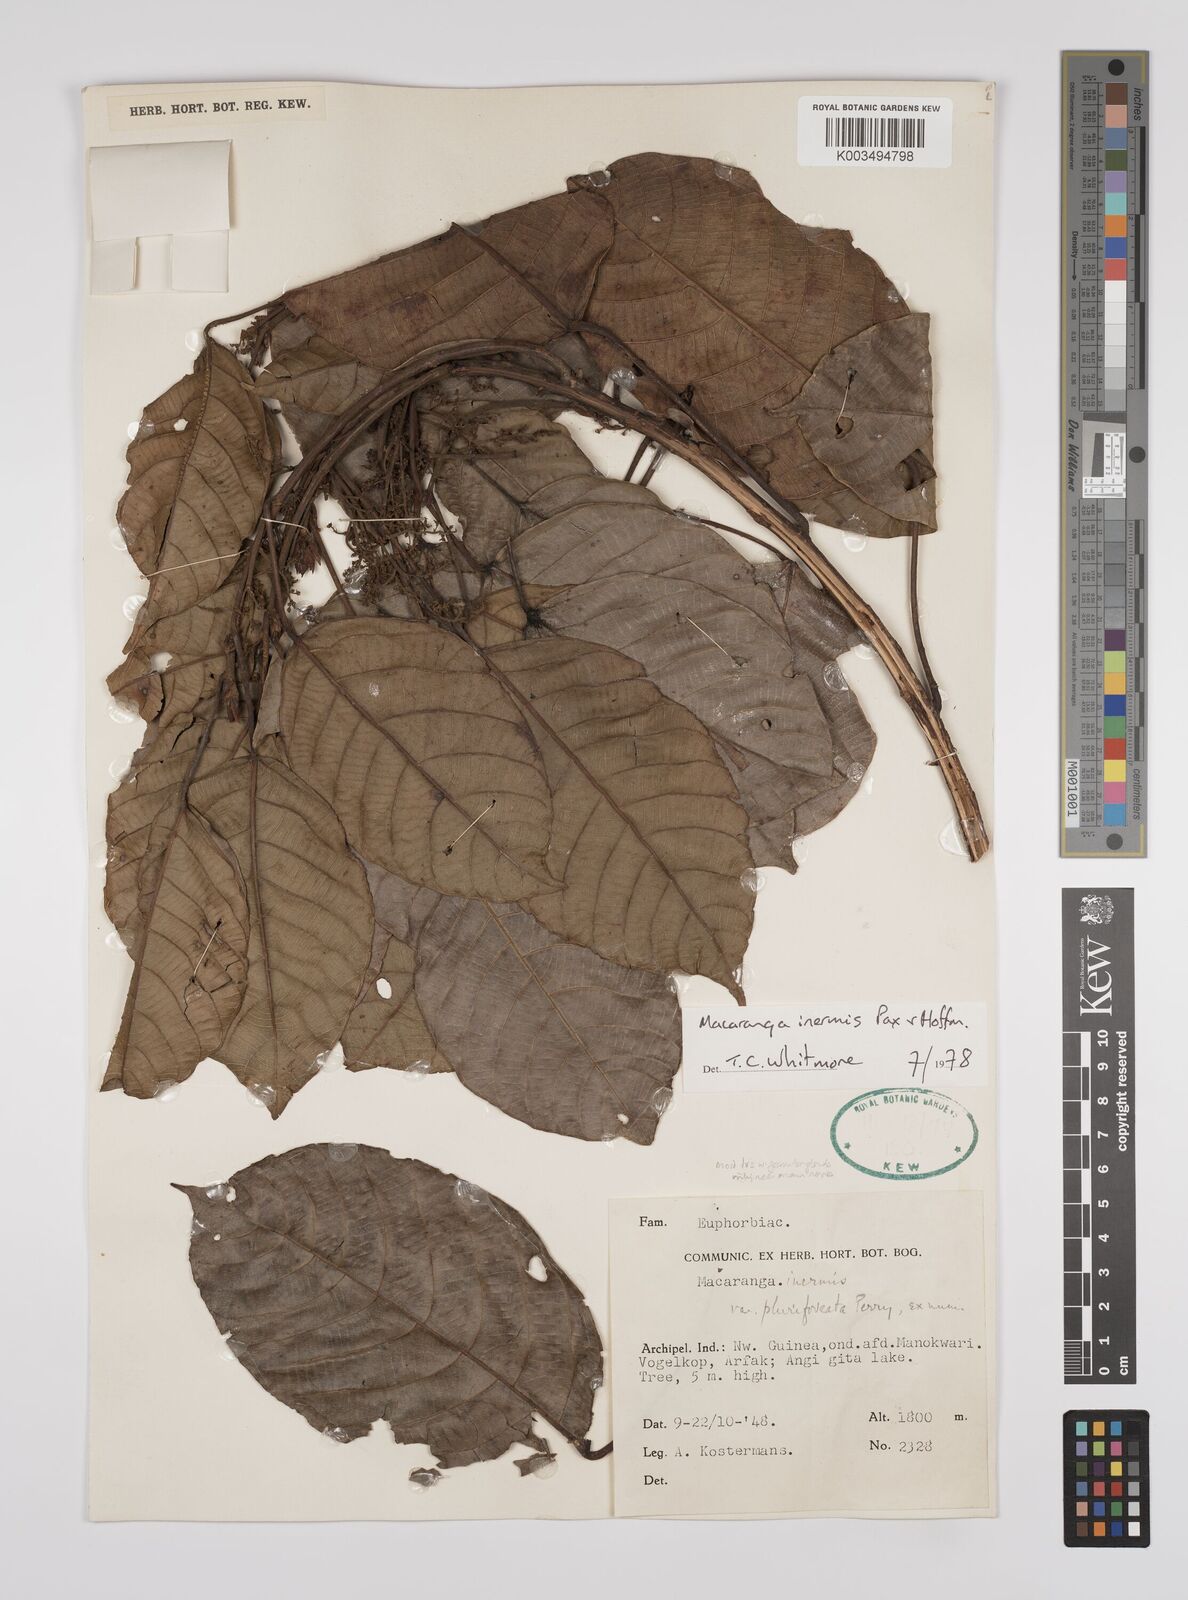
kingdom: Plantae
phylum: Tracheophyta
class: Magnoliopsida
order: Malpighiales
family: Euphorbiaceae
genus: Macaranga
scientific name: Macaranga inermis
